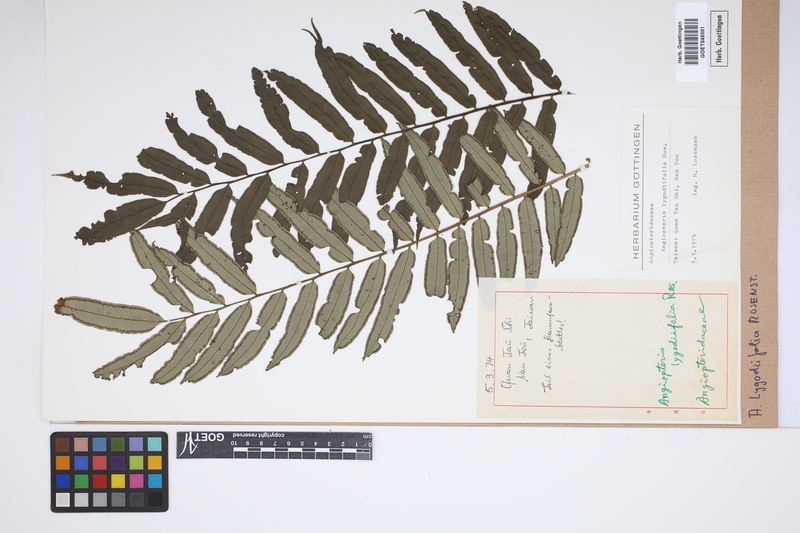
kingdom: Plantae
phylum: Tracheophyta
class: Polypodiopsida
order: Marattiales
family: Marattiaceae
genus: Angiopteris
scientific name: Angiopteris lygodiifolia
